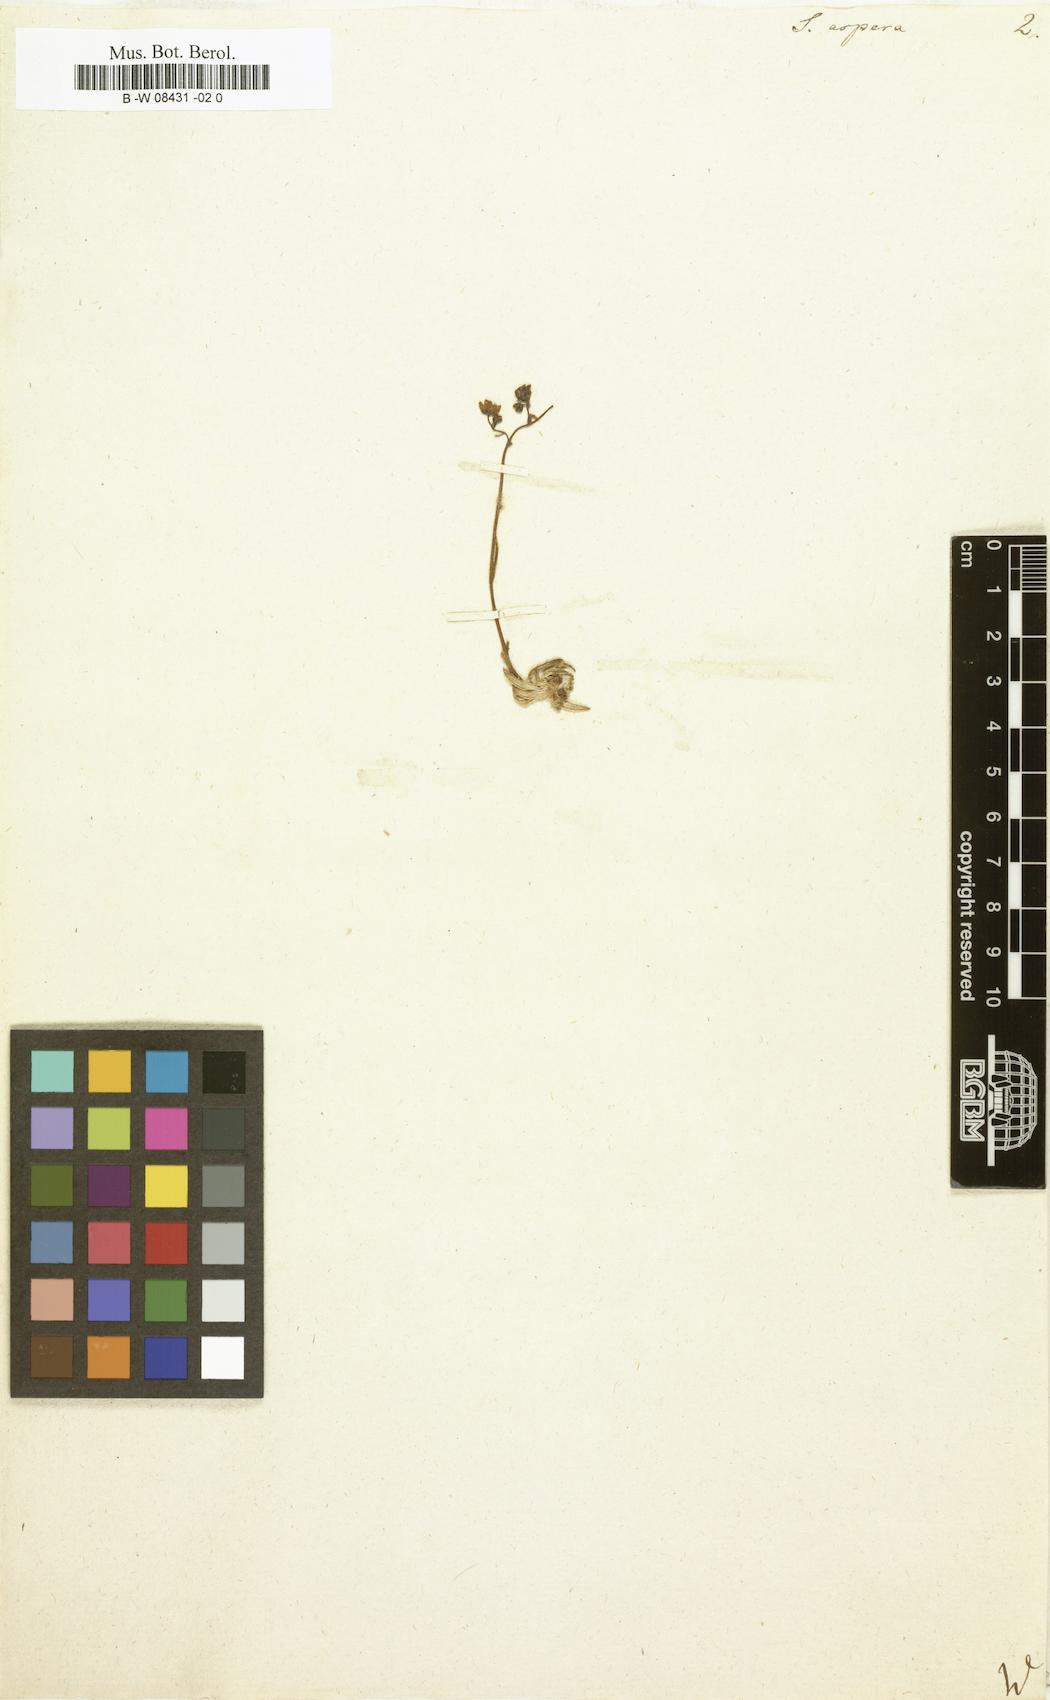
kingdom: Plantae
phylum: Tracheophyta
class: Magnoliopsida
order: Saxifragales
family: Saxifragaceae
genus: Saxifraga
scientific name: Saxifraga aspera
